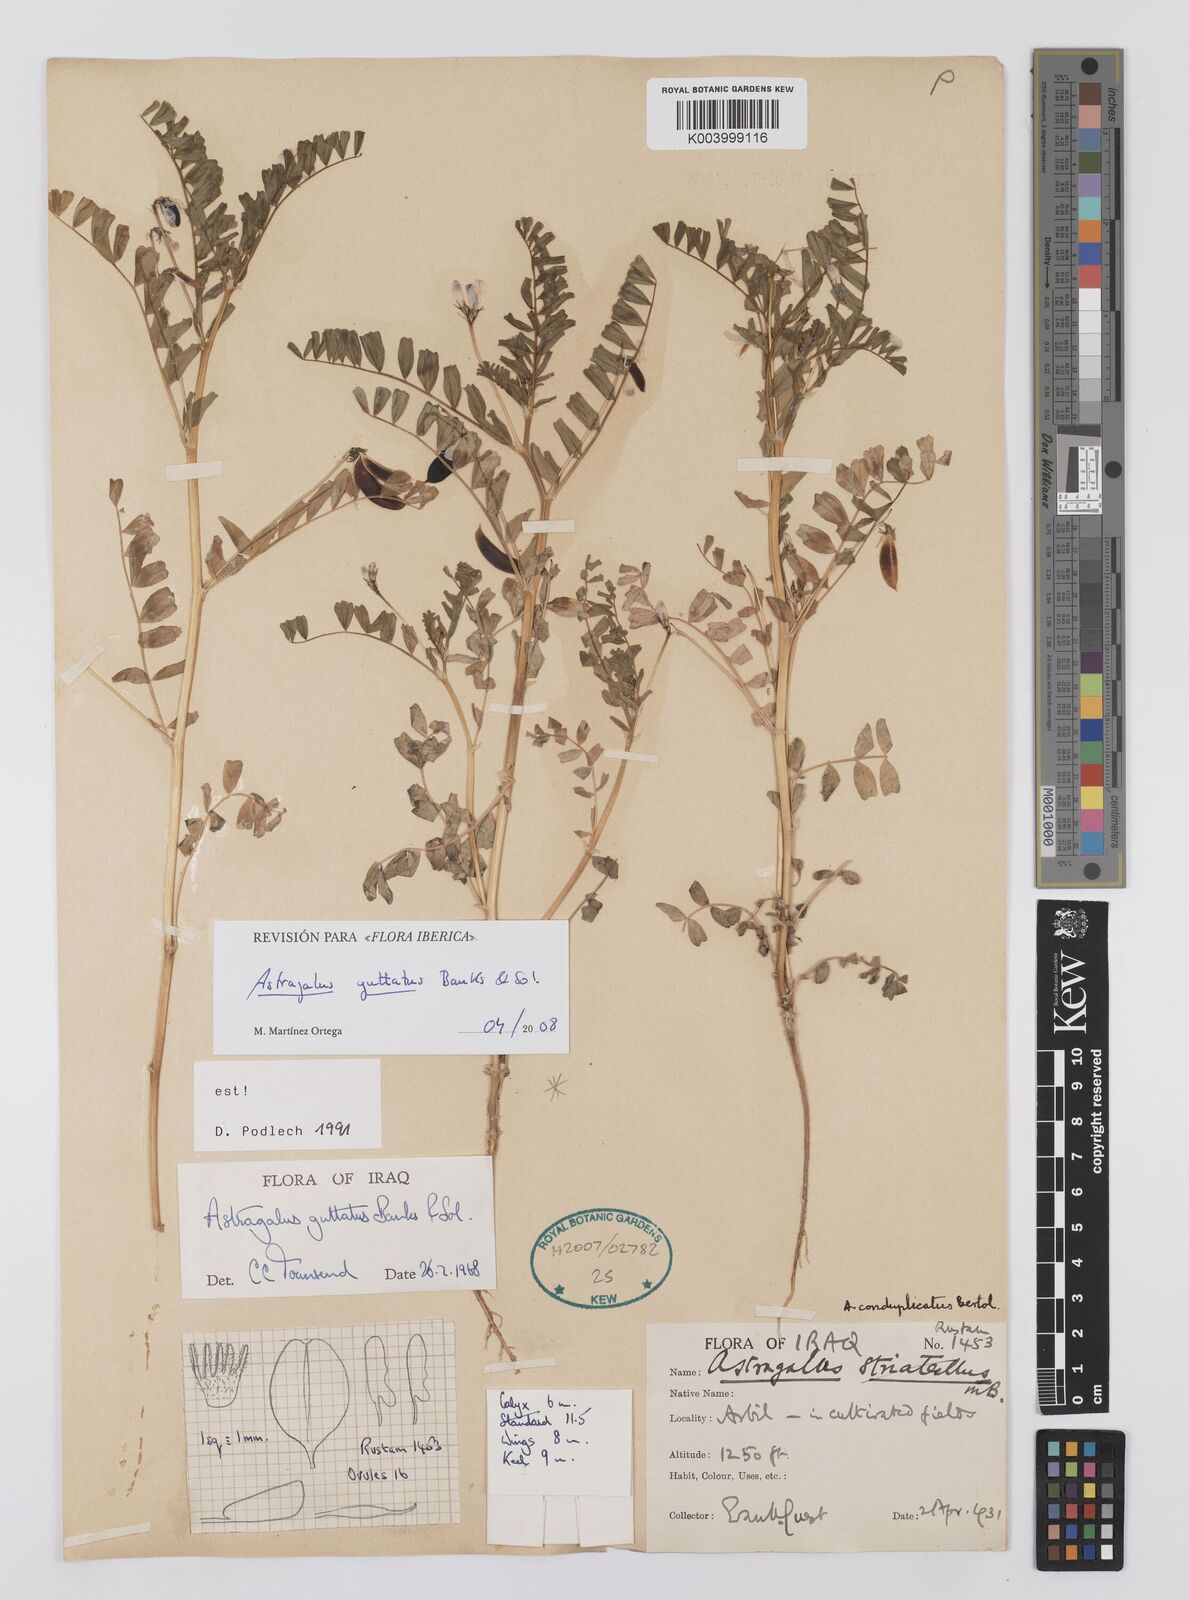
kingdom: Plantae
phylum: Tracheophyta
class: Magnoliopsida
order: Fabales
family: Fabaceae
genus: Astragalus
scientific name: Astragalus guttatus
